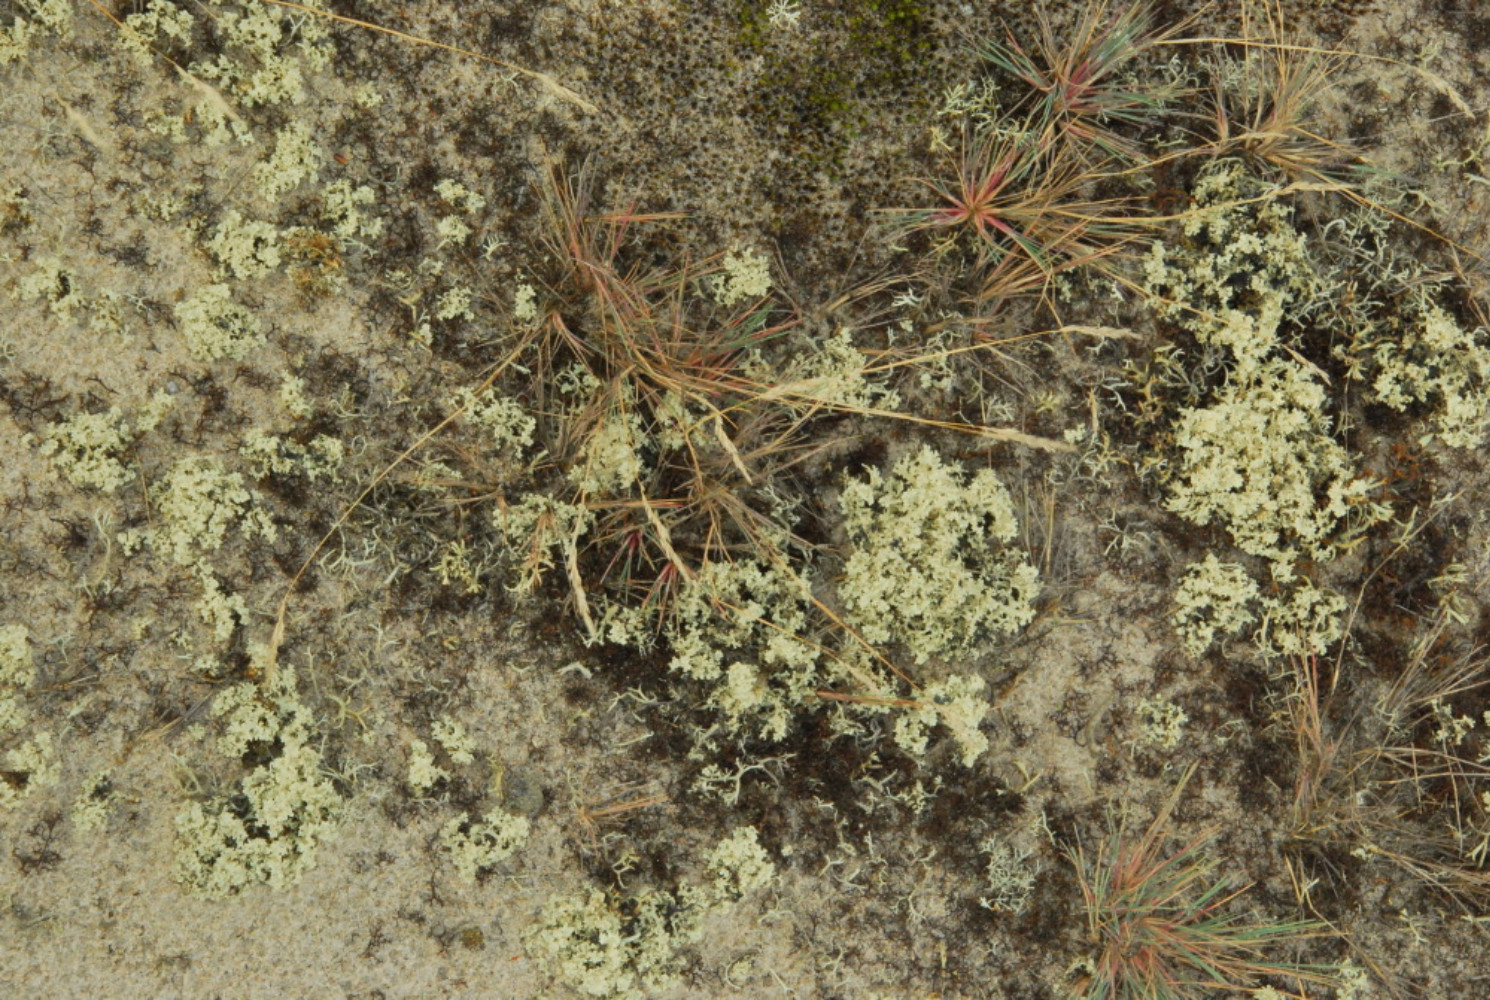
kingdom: Fungi
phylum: Ascomycota
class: Lecanoromycetes
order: Lecanorales
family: Parmeliaceae
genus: Nephromopsis
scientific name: Nephromopsis nivalis
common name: sne-kruslav
